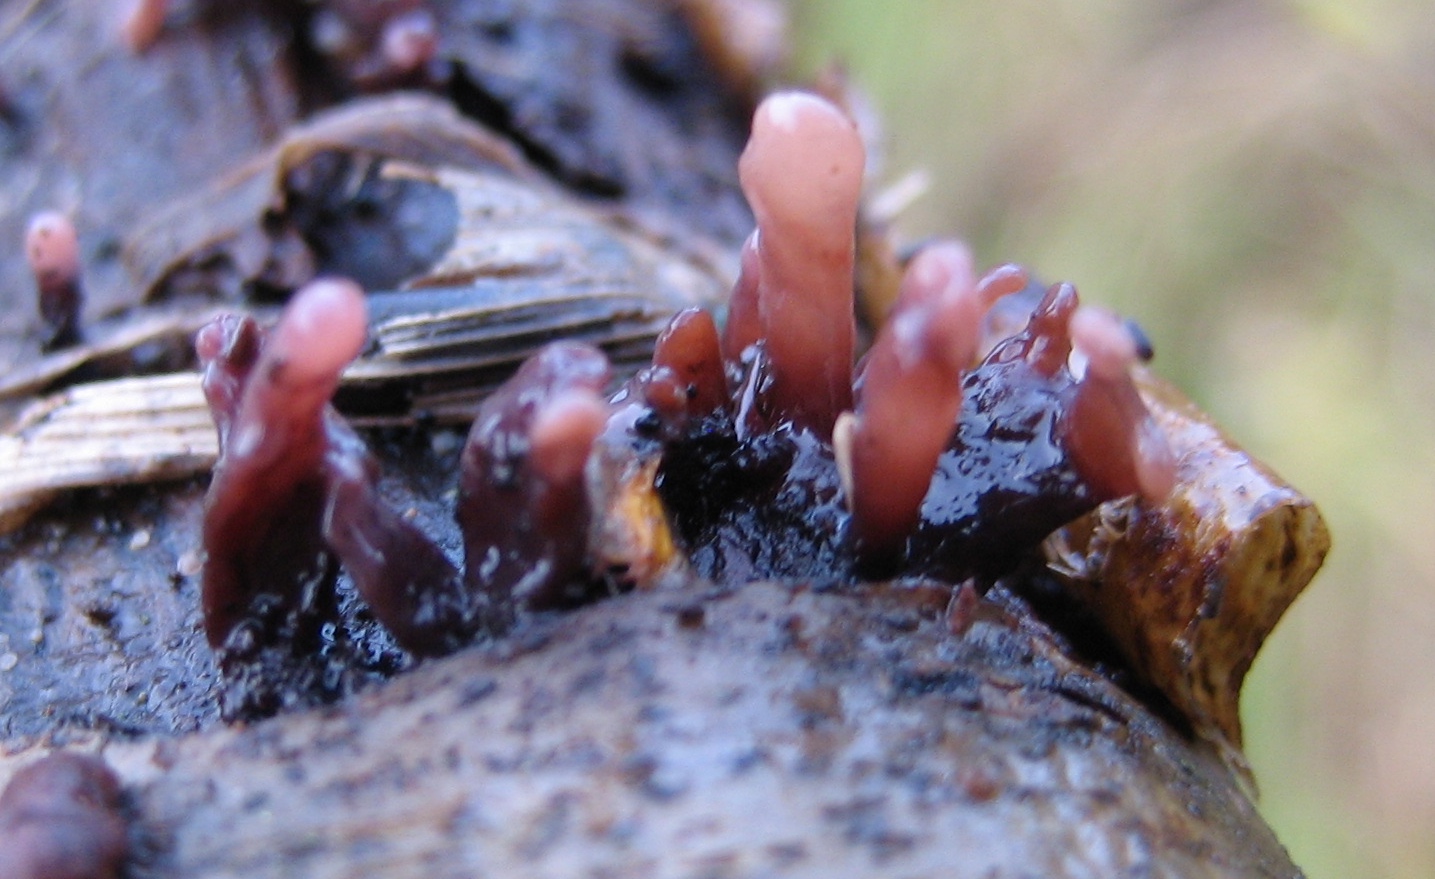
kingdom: Fungi
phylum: Ascomycota
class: Leotiomycetes
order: Helotiales
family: Gelatinodiscaceae
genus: Ascocoryne
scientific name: Ascocoryne
